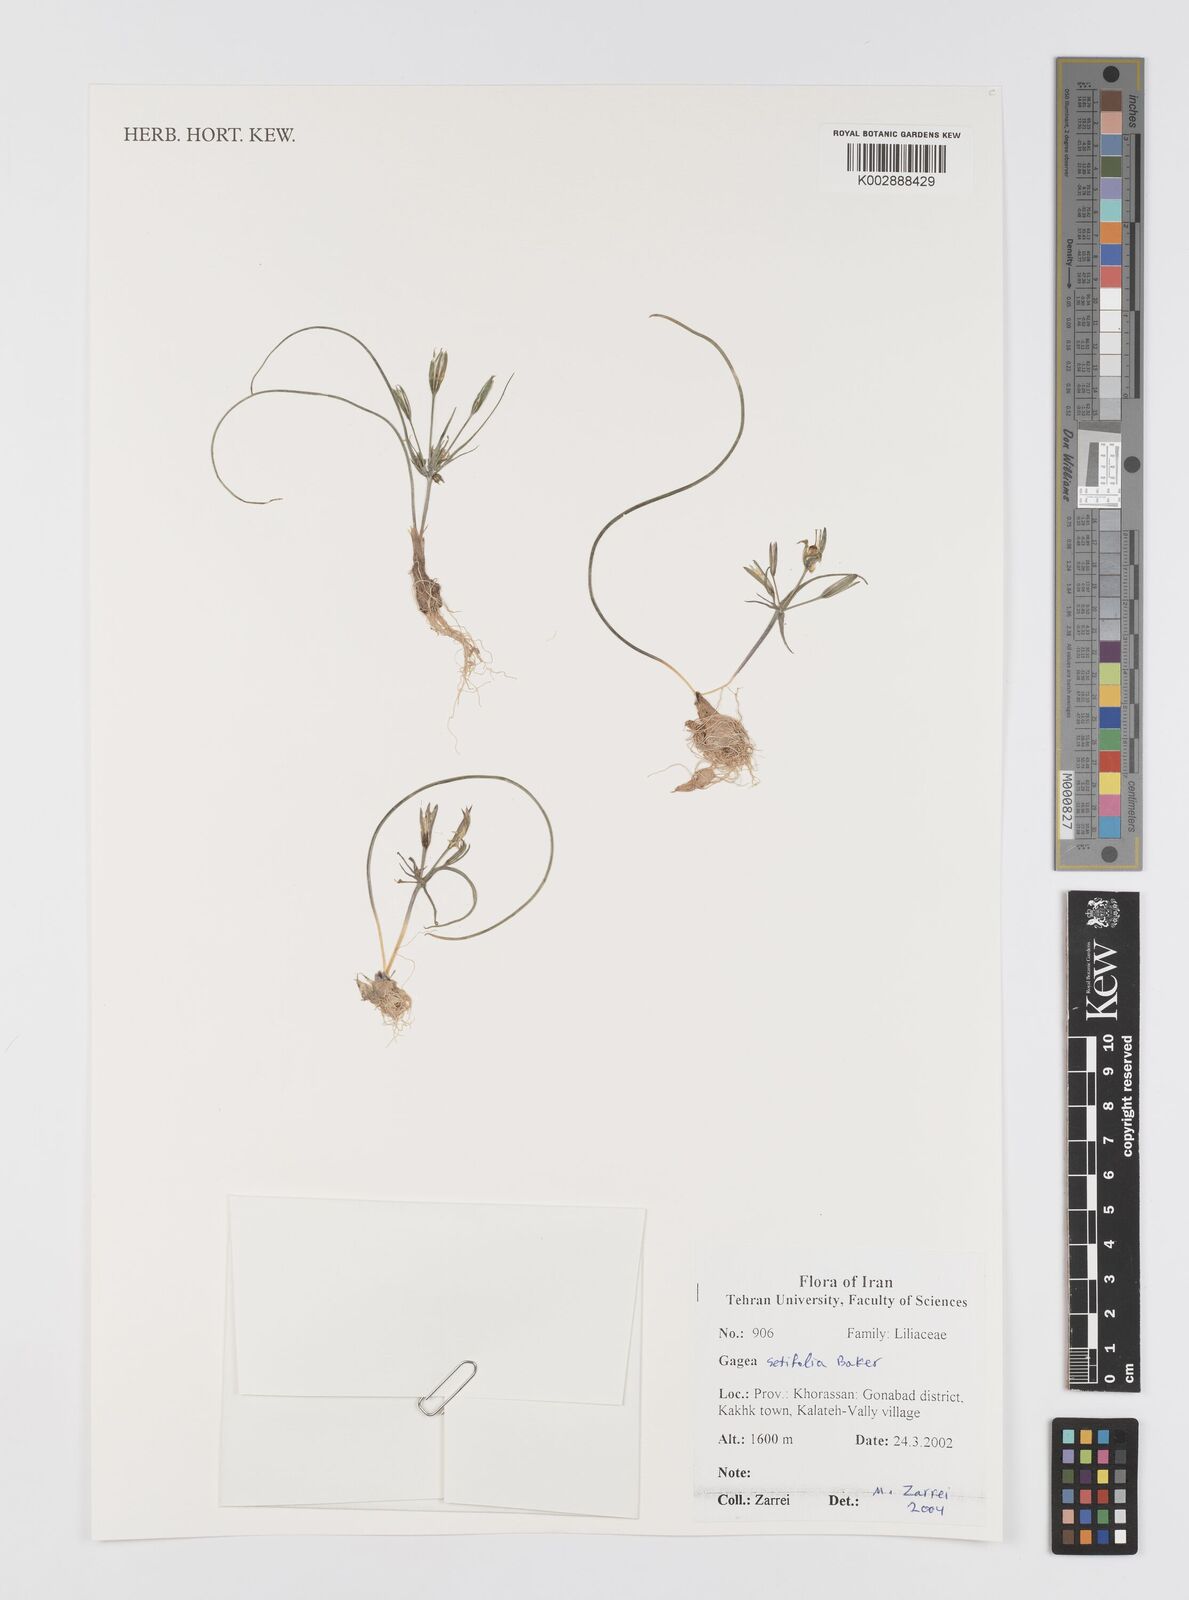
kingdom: Plantae
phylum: Tracheophyta
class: Liliopsida
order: Liliales
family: Liliaceae
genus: Gagea
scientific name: Gagea setifolia
